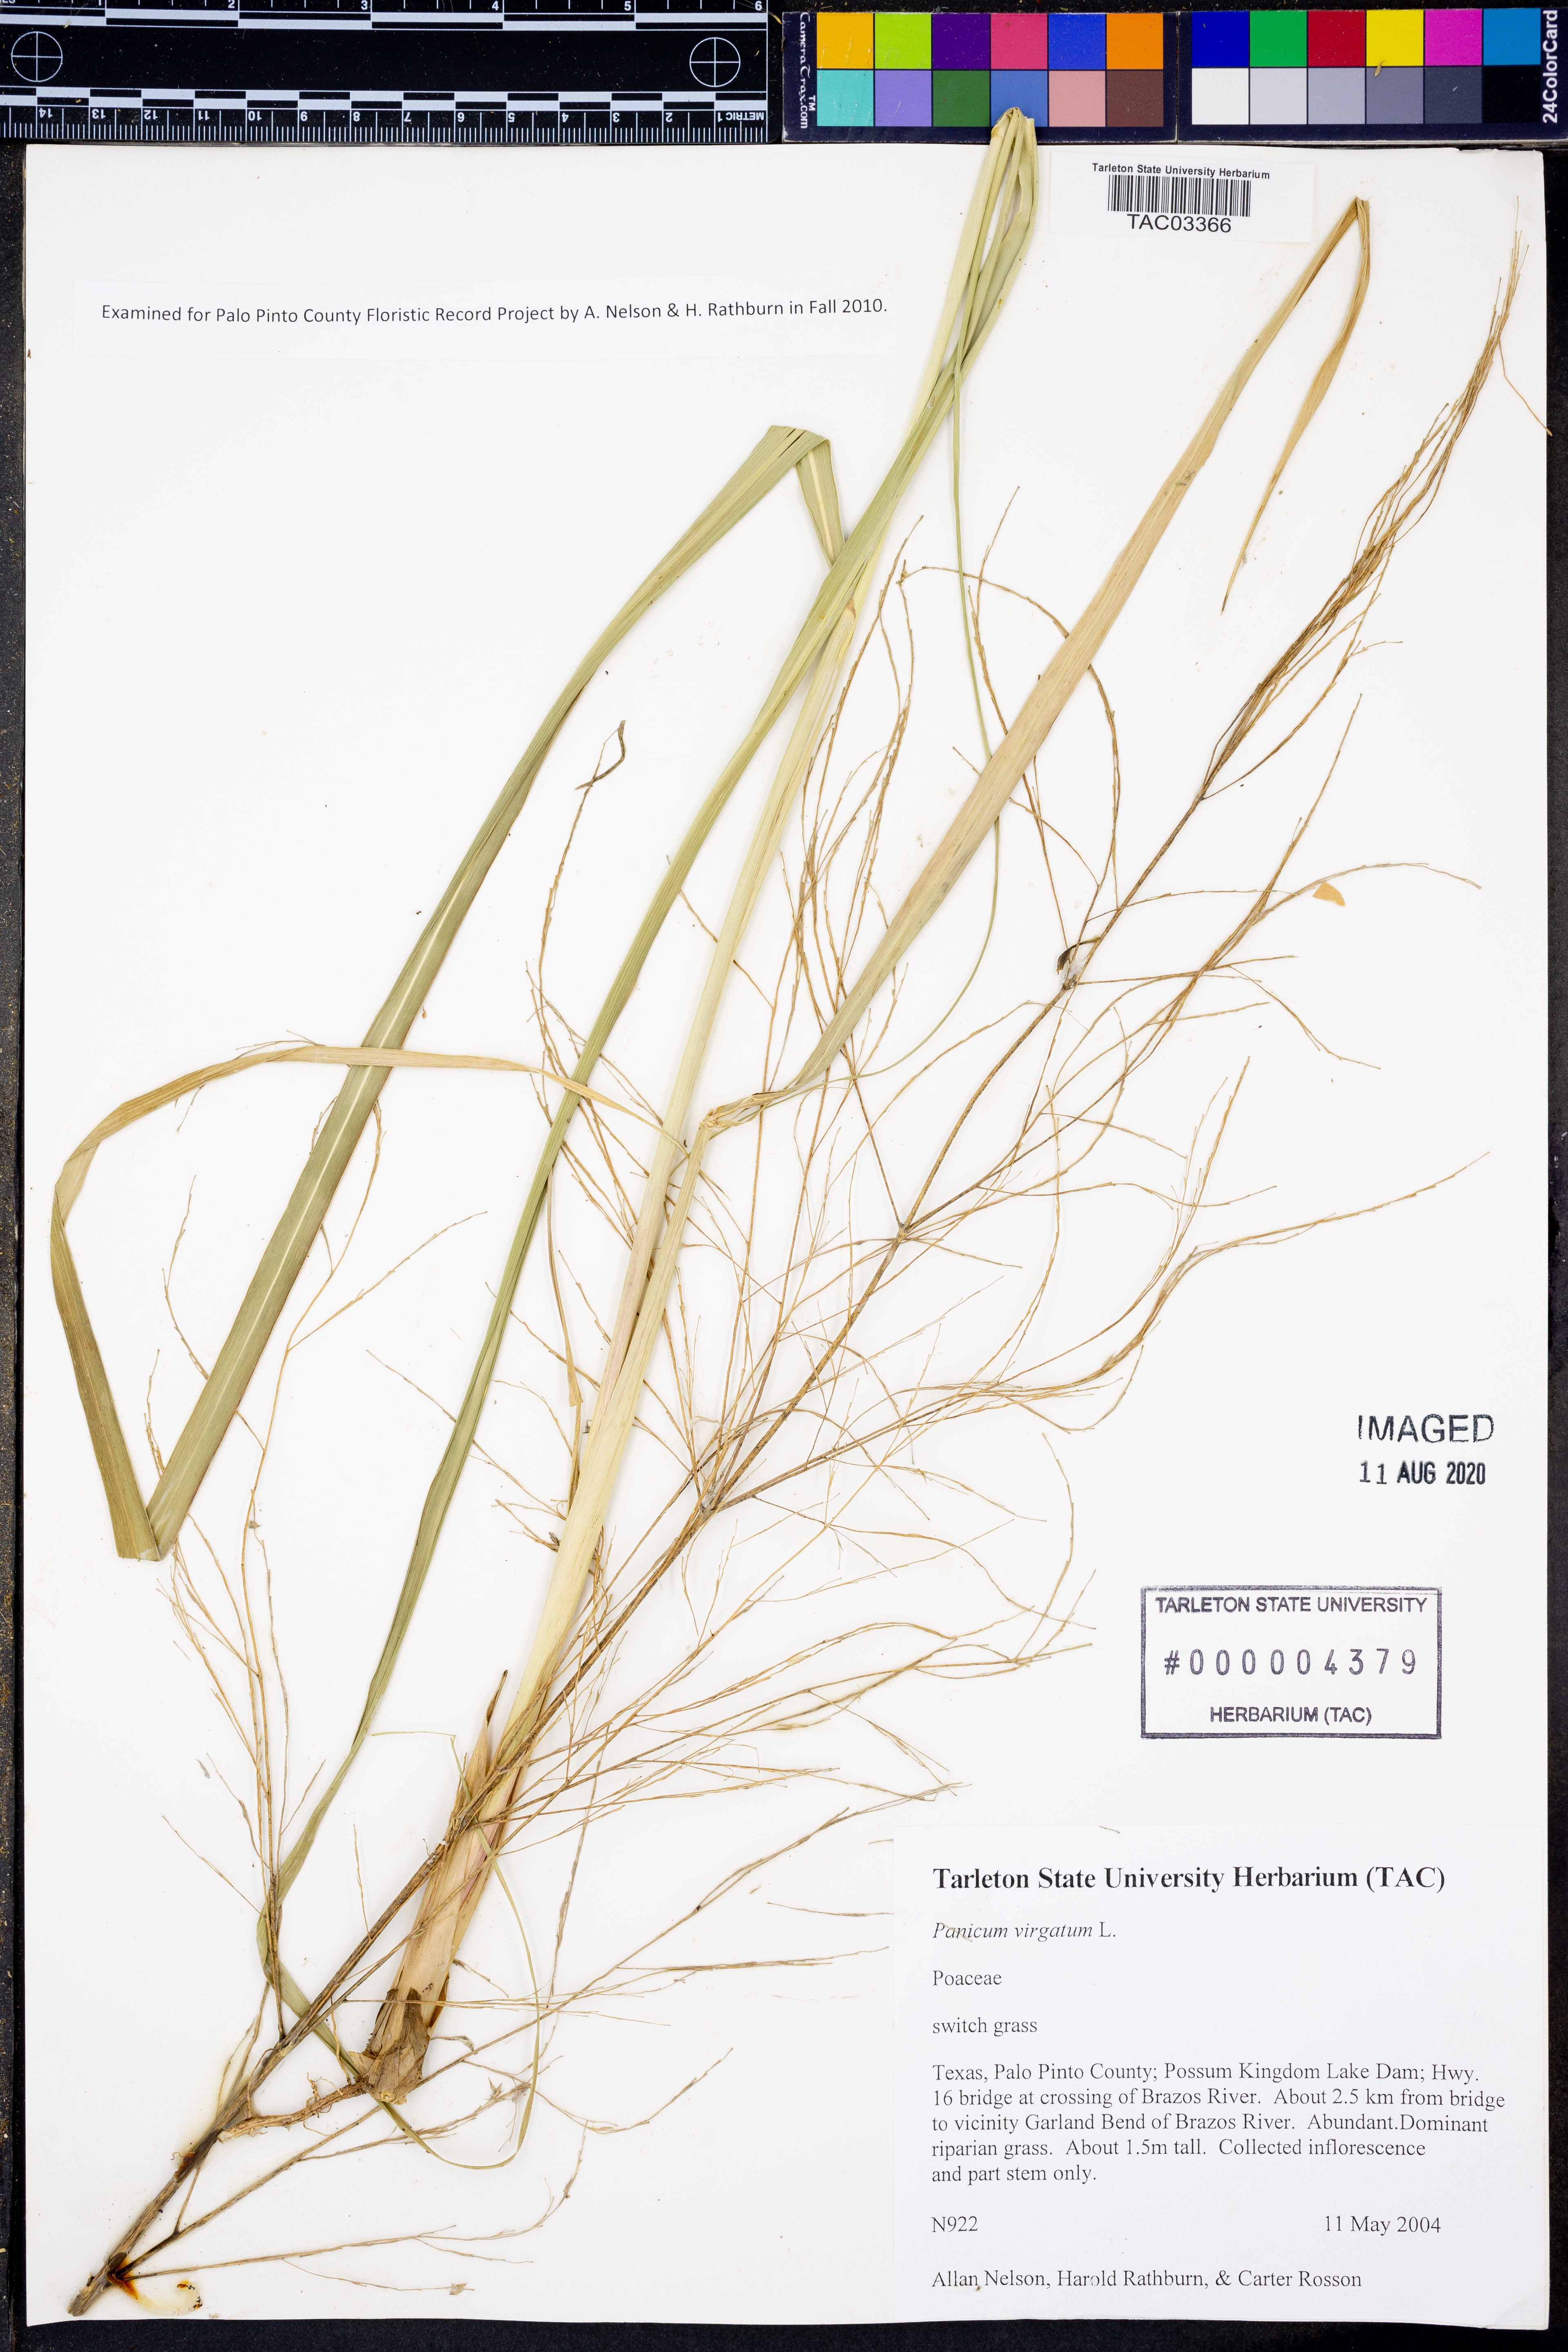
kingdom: Plantae
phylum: Tracheophyta
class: Liliopsida
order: Poales
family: Poaceae
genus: Panicum
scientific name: Panicum virgatum
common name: Switchgrass
